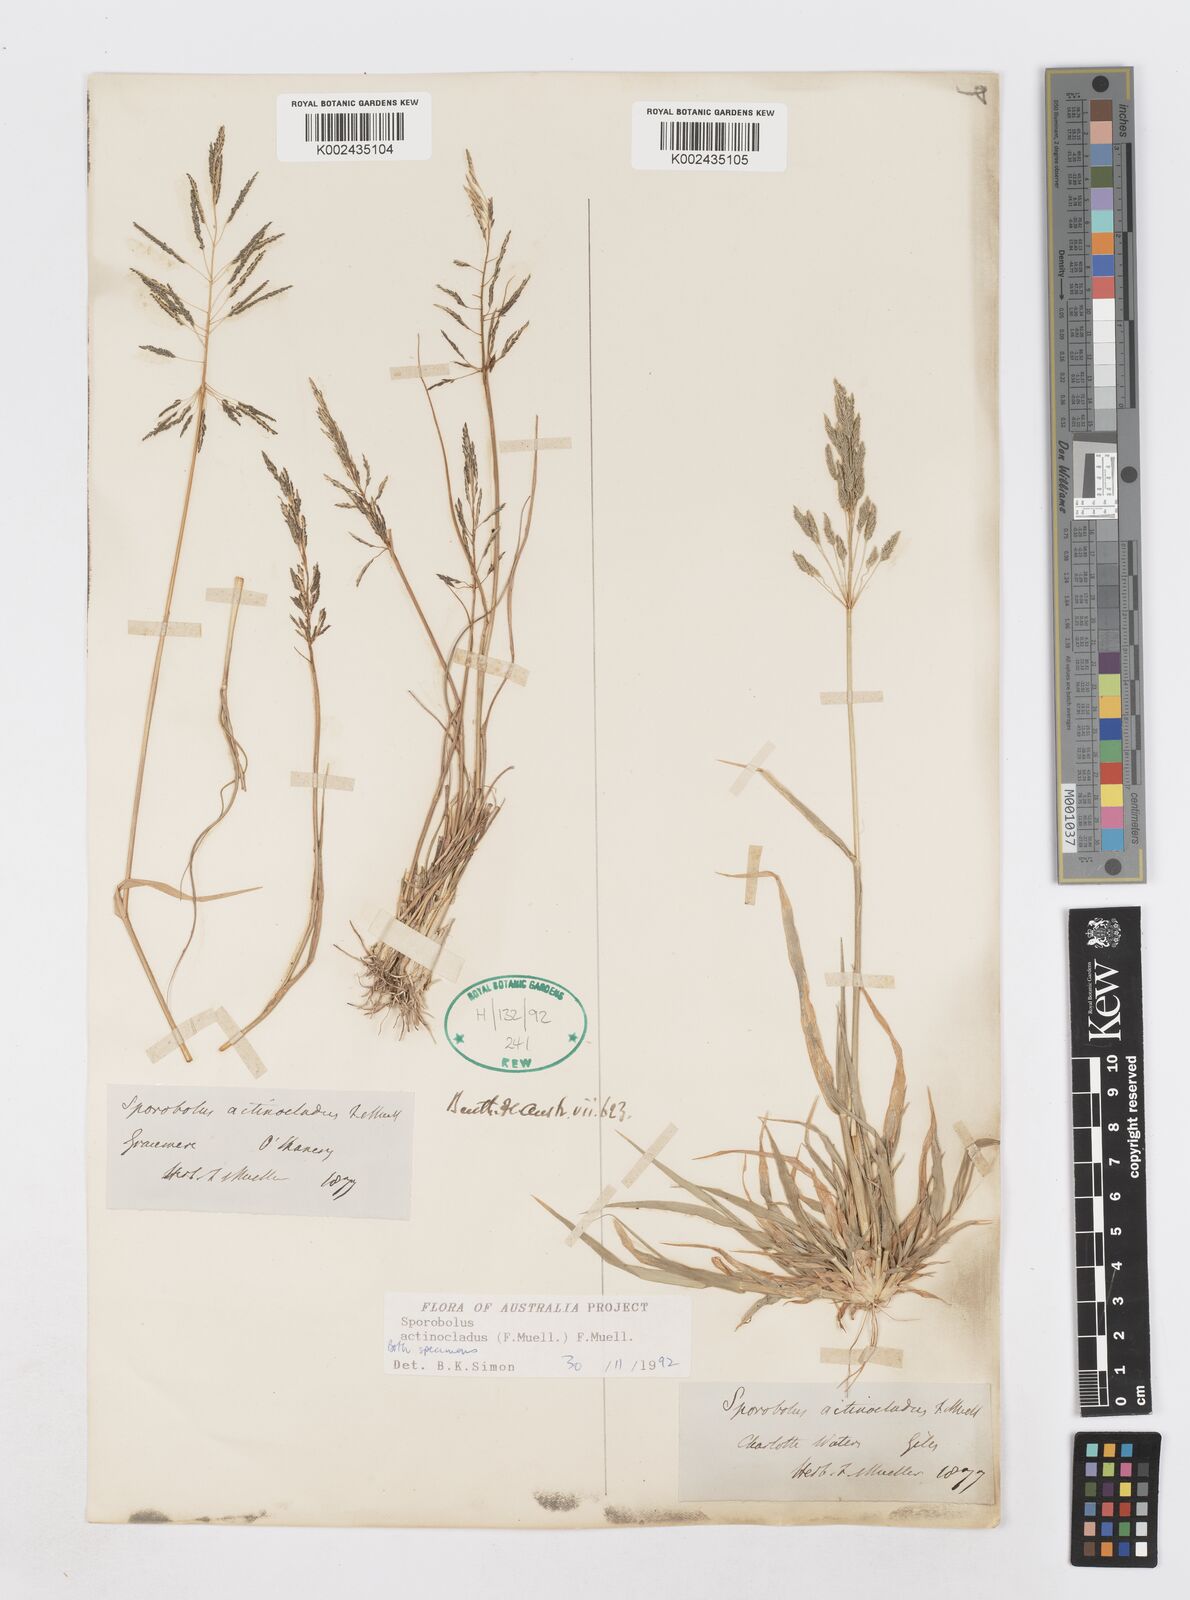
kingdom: Plantae
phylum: Tracheophyta
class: Liliopsida
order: Poales
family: Poaceae
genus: Sporobolus
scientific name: Sporobolus actinocladus
